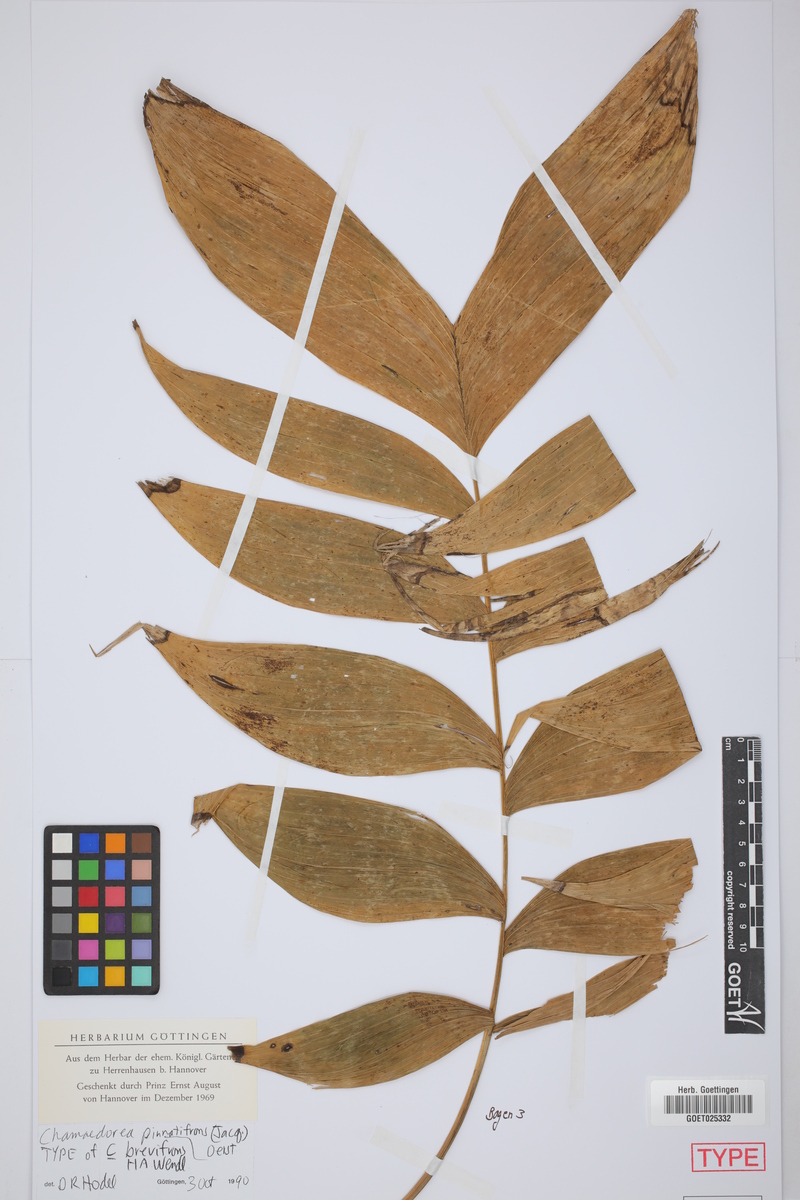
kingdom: Plantae
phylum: Tracheophyta
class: Liliopsida
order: Arecales
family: Arecaceae
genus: Chamaedorea
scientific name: Chamaedorea pinnatifrons
